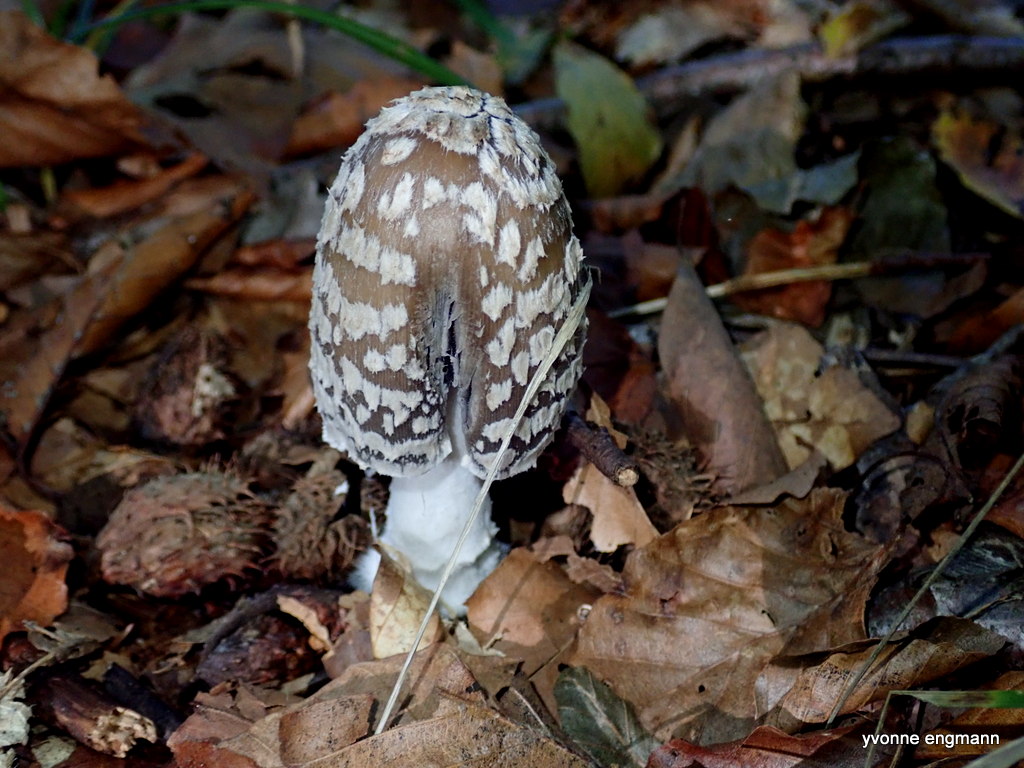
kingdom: Fungi
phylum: Basidiomycota
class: Agaricomycetes
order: Agaricales
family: Psathyrellaceae
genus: Coprinopsis
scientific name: Coprinopsis picacea
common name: skade-blækhat
